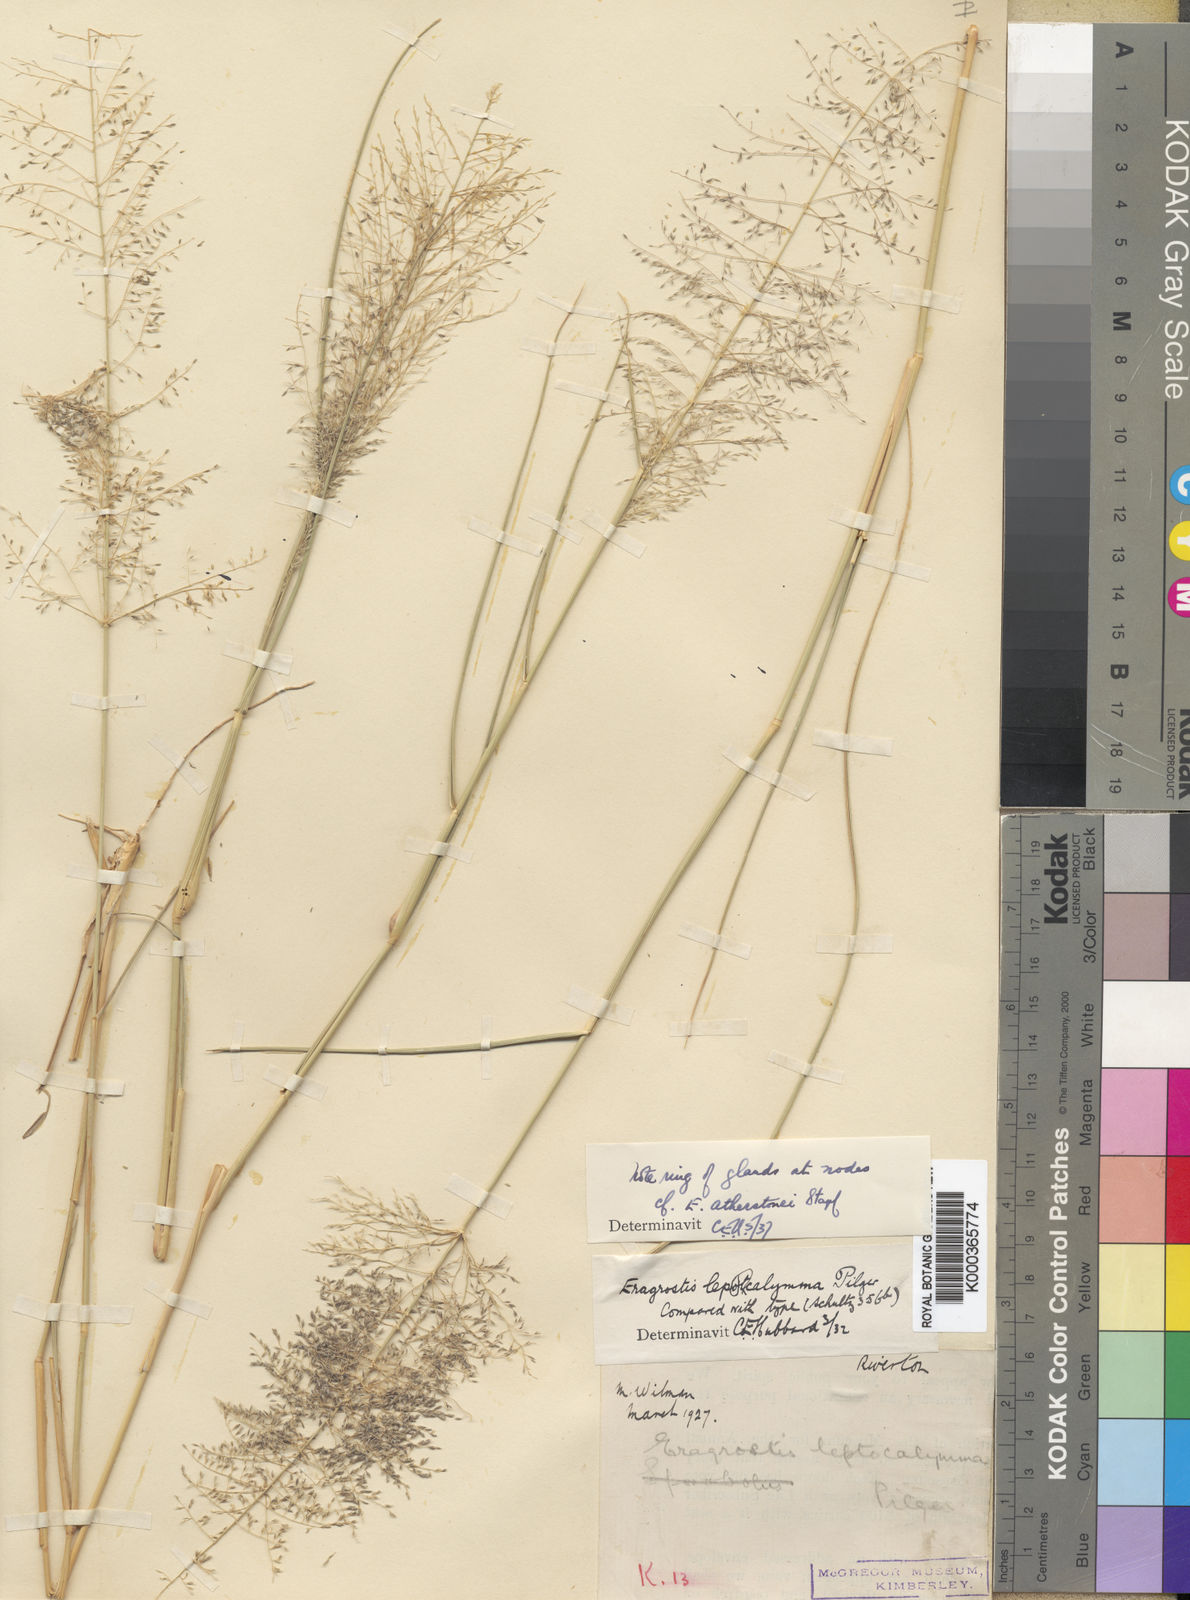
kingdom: Plantae
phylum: Tracheophyta
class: Liliopsida
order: Poales
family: Poaceae
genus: Eragrostis
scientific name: Eragrostis cylindriflora
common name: Cylinderflower lovegrass
